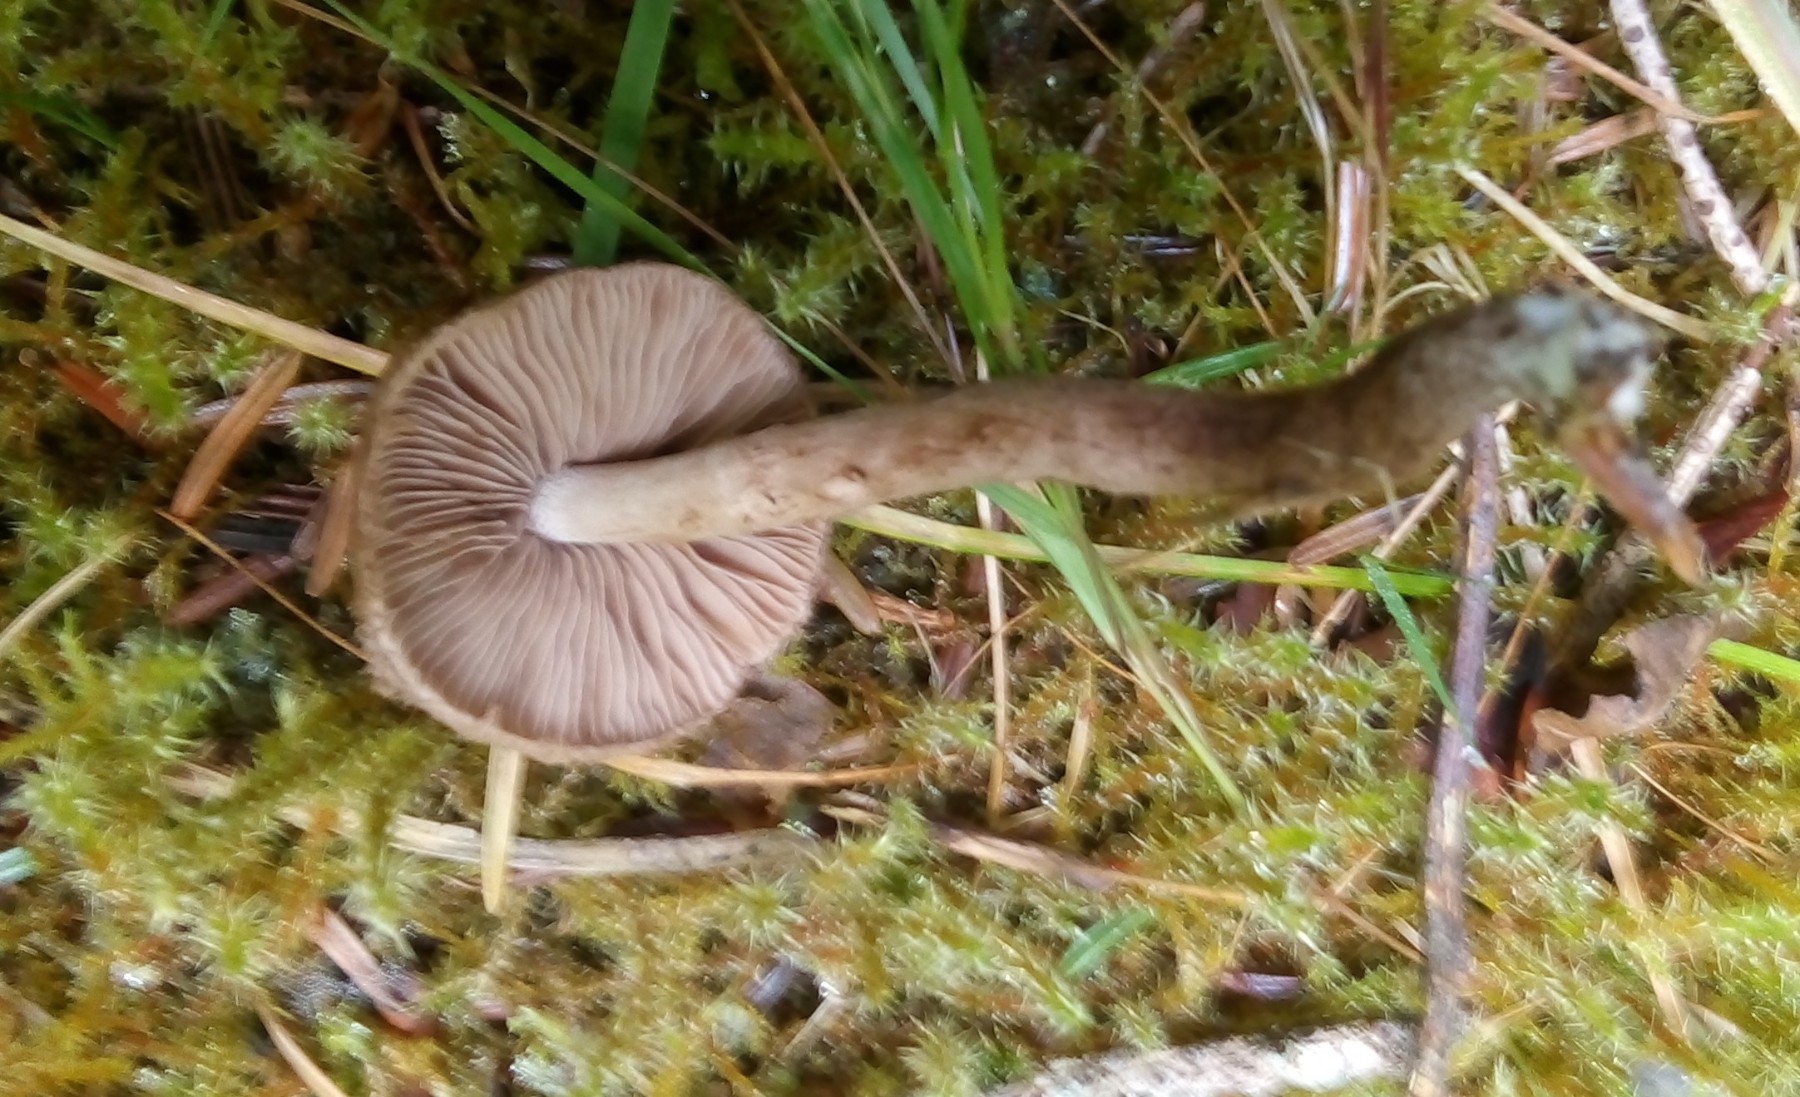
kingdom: Fungi
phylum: Basidiomycota
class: Agaricomycetes
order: Agaricales
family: Inocybaceae
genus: Inocybe
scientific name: Inocybe lanuginosa
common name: uldskællet trævlhat
